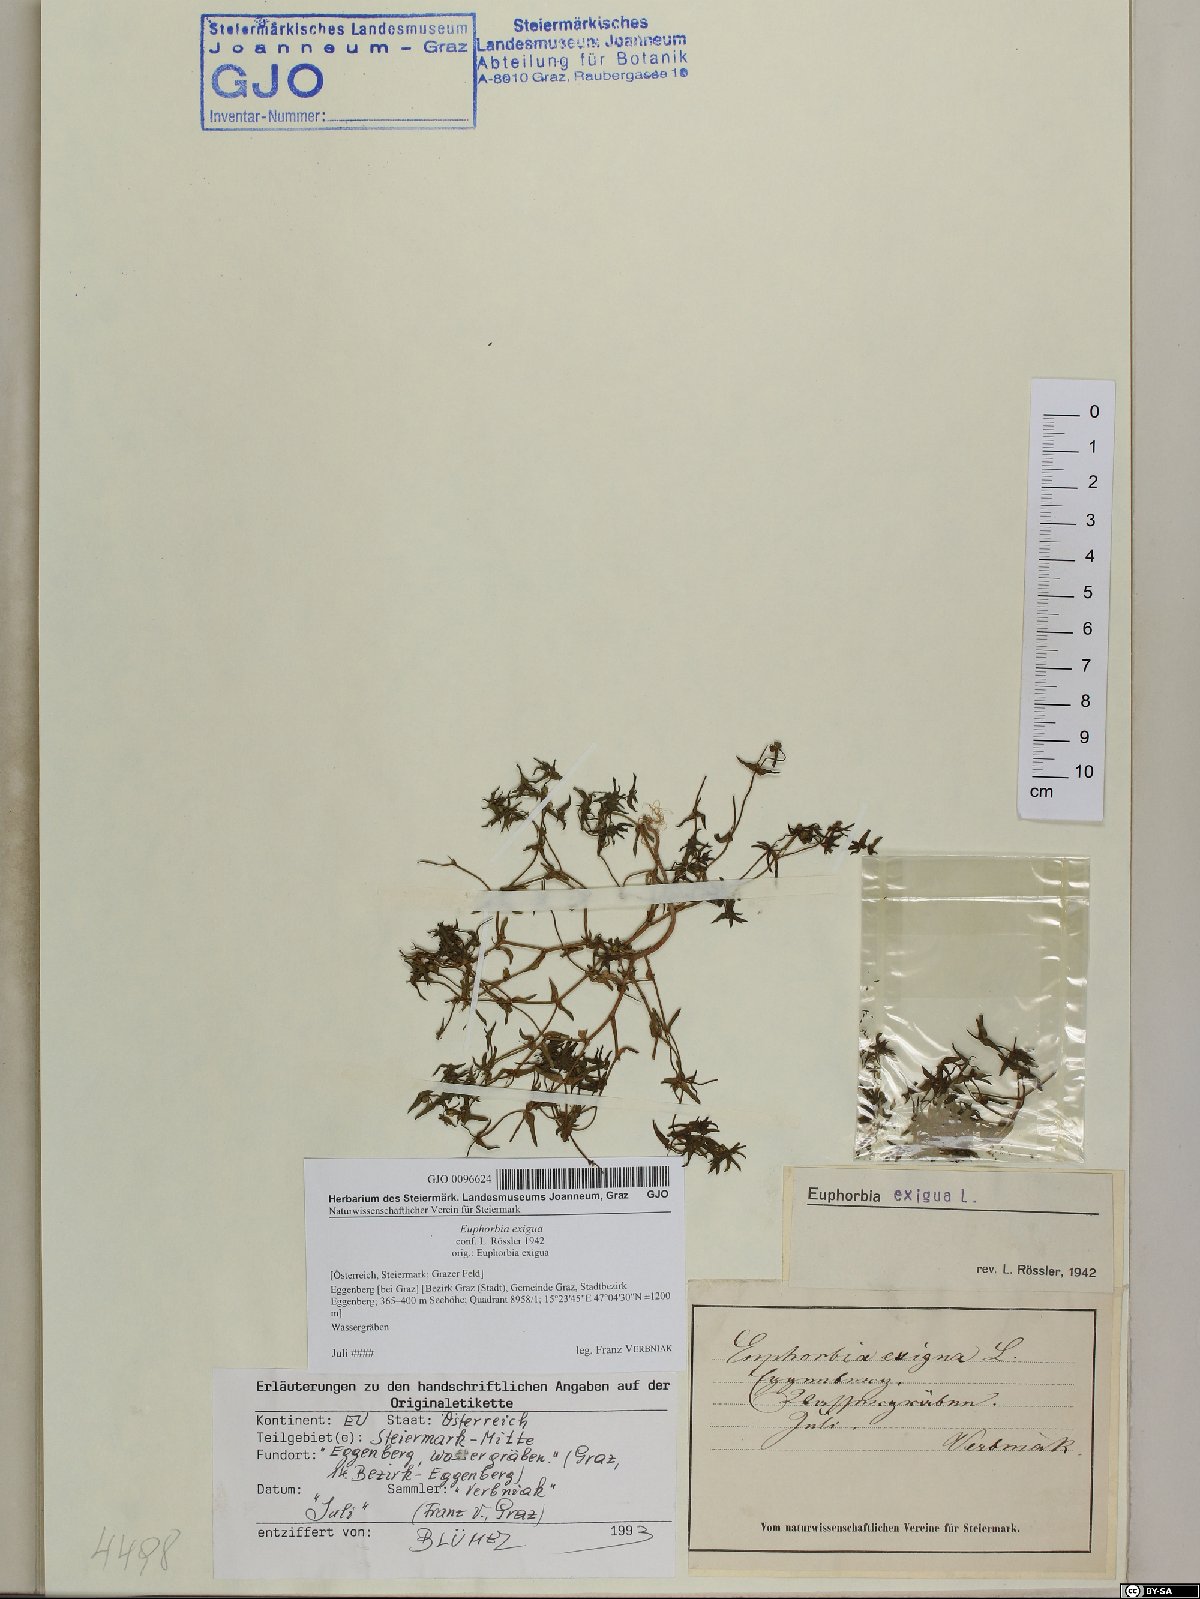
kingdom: Plantae
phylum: Tracheophyta
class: Magnoliopsida
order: Malpighiales
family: Euphorbiaceae
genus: Euphorbia
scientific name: Euphorbia exigua
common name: Dwarf spurge
